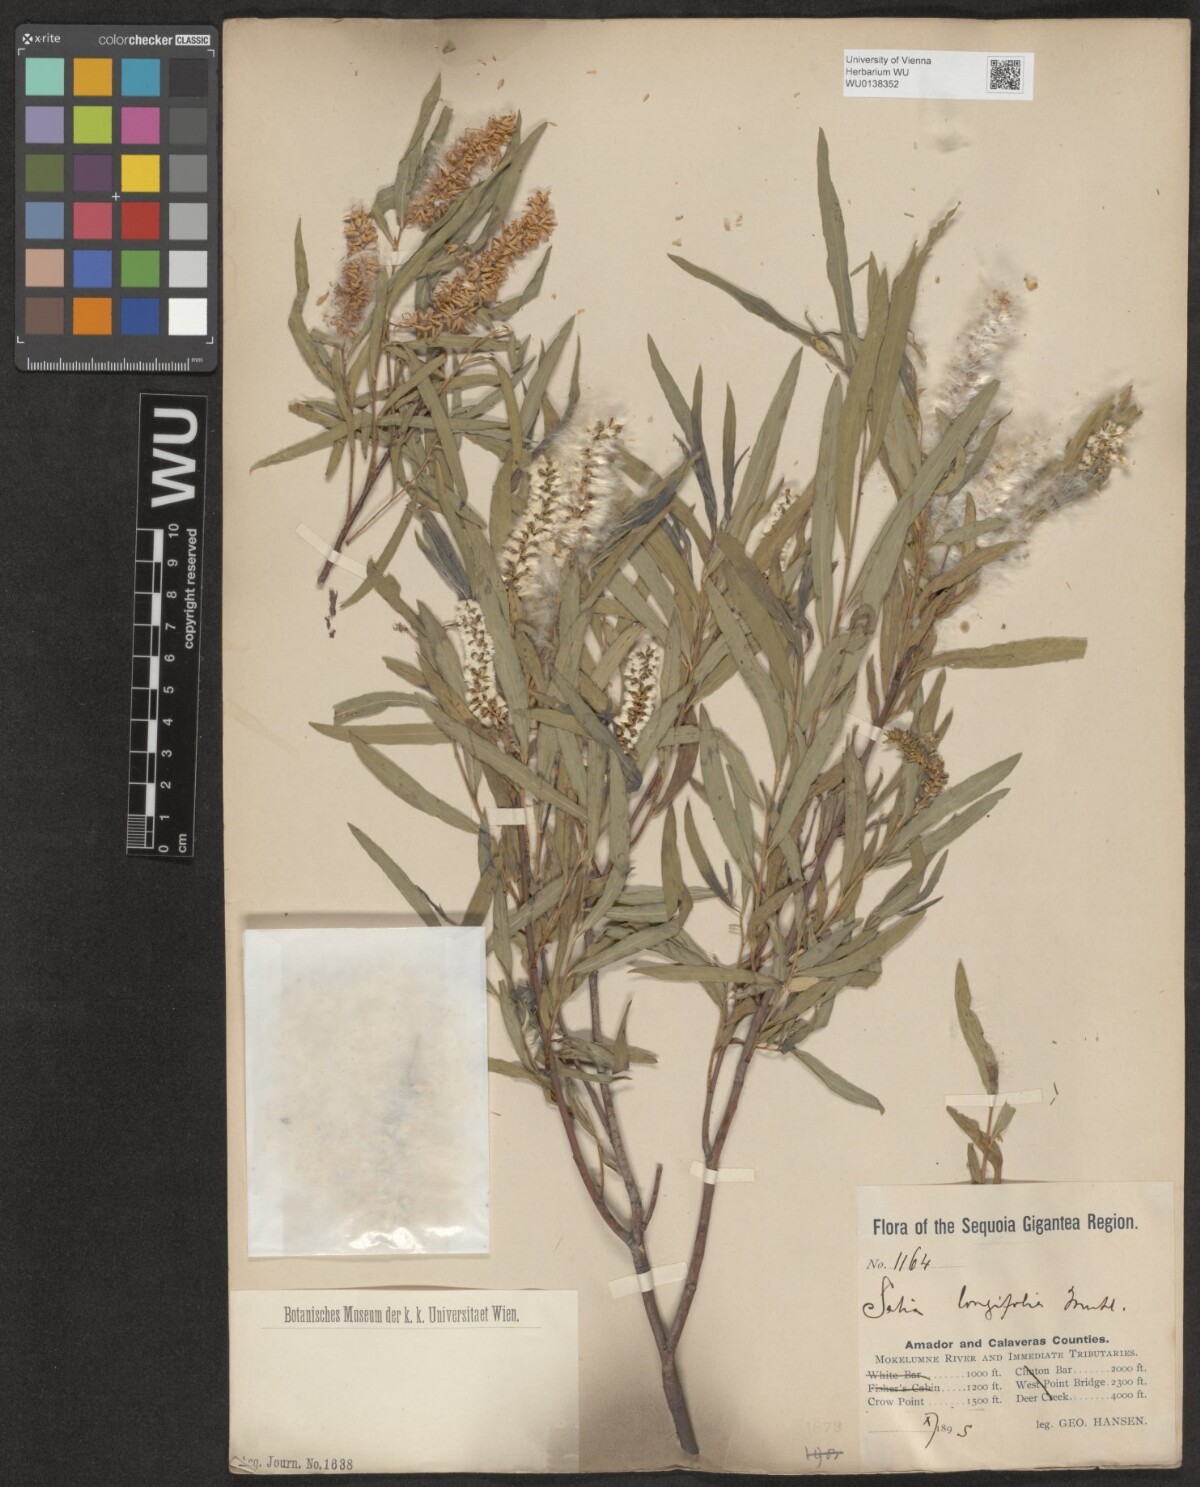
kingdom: Plantae
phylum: Tracheophyta
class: Magnoliopsida
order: Malpighiales
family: Salicaceae
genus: Salix
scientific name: Salix interior
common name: Sandbar willow
